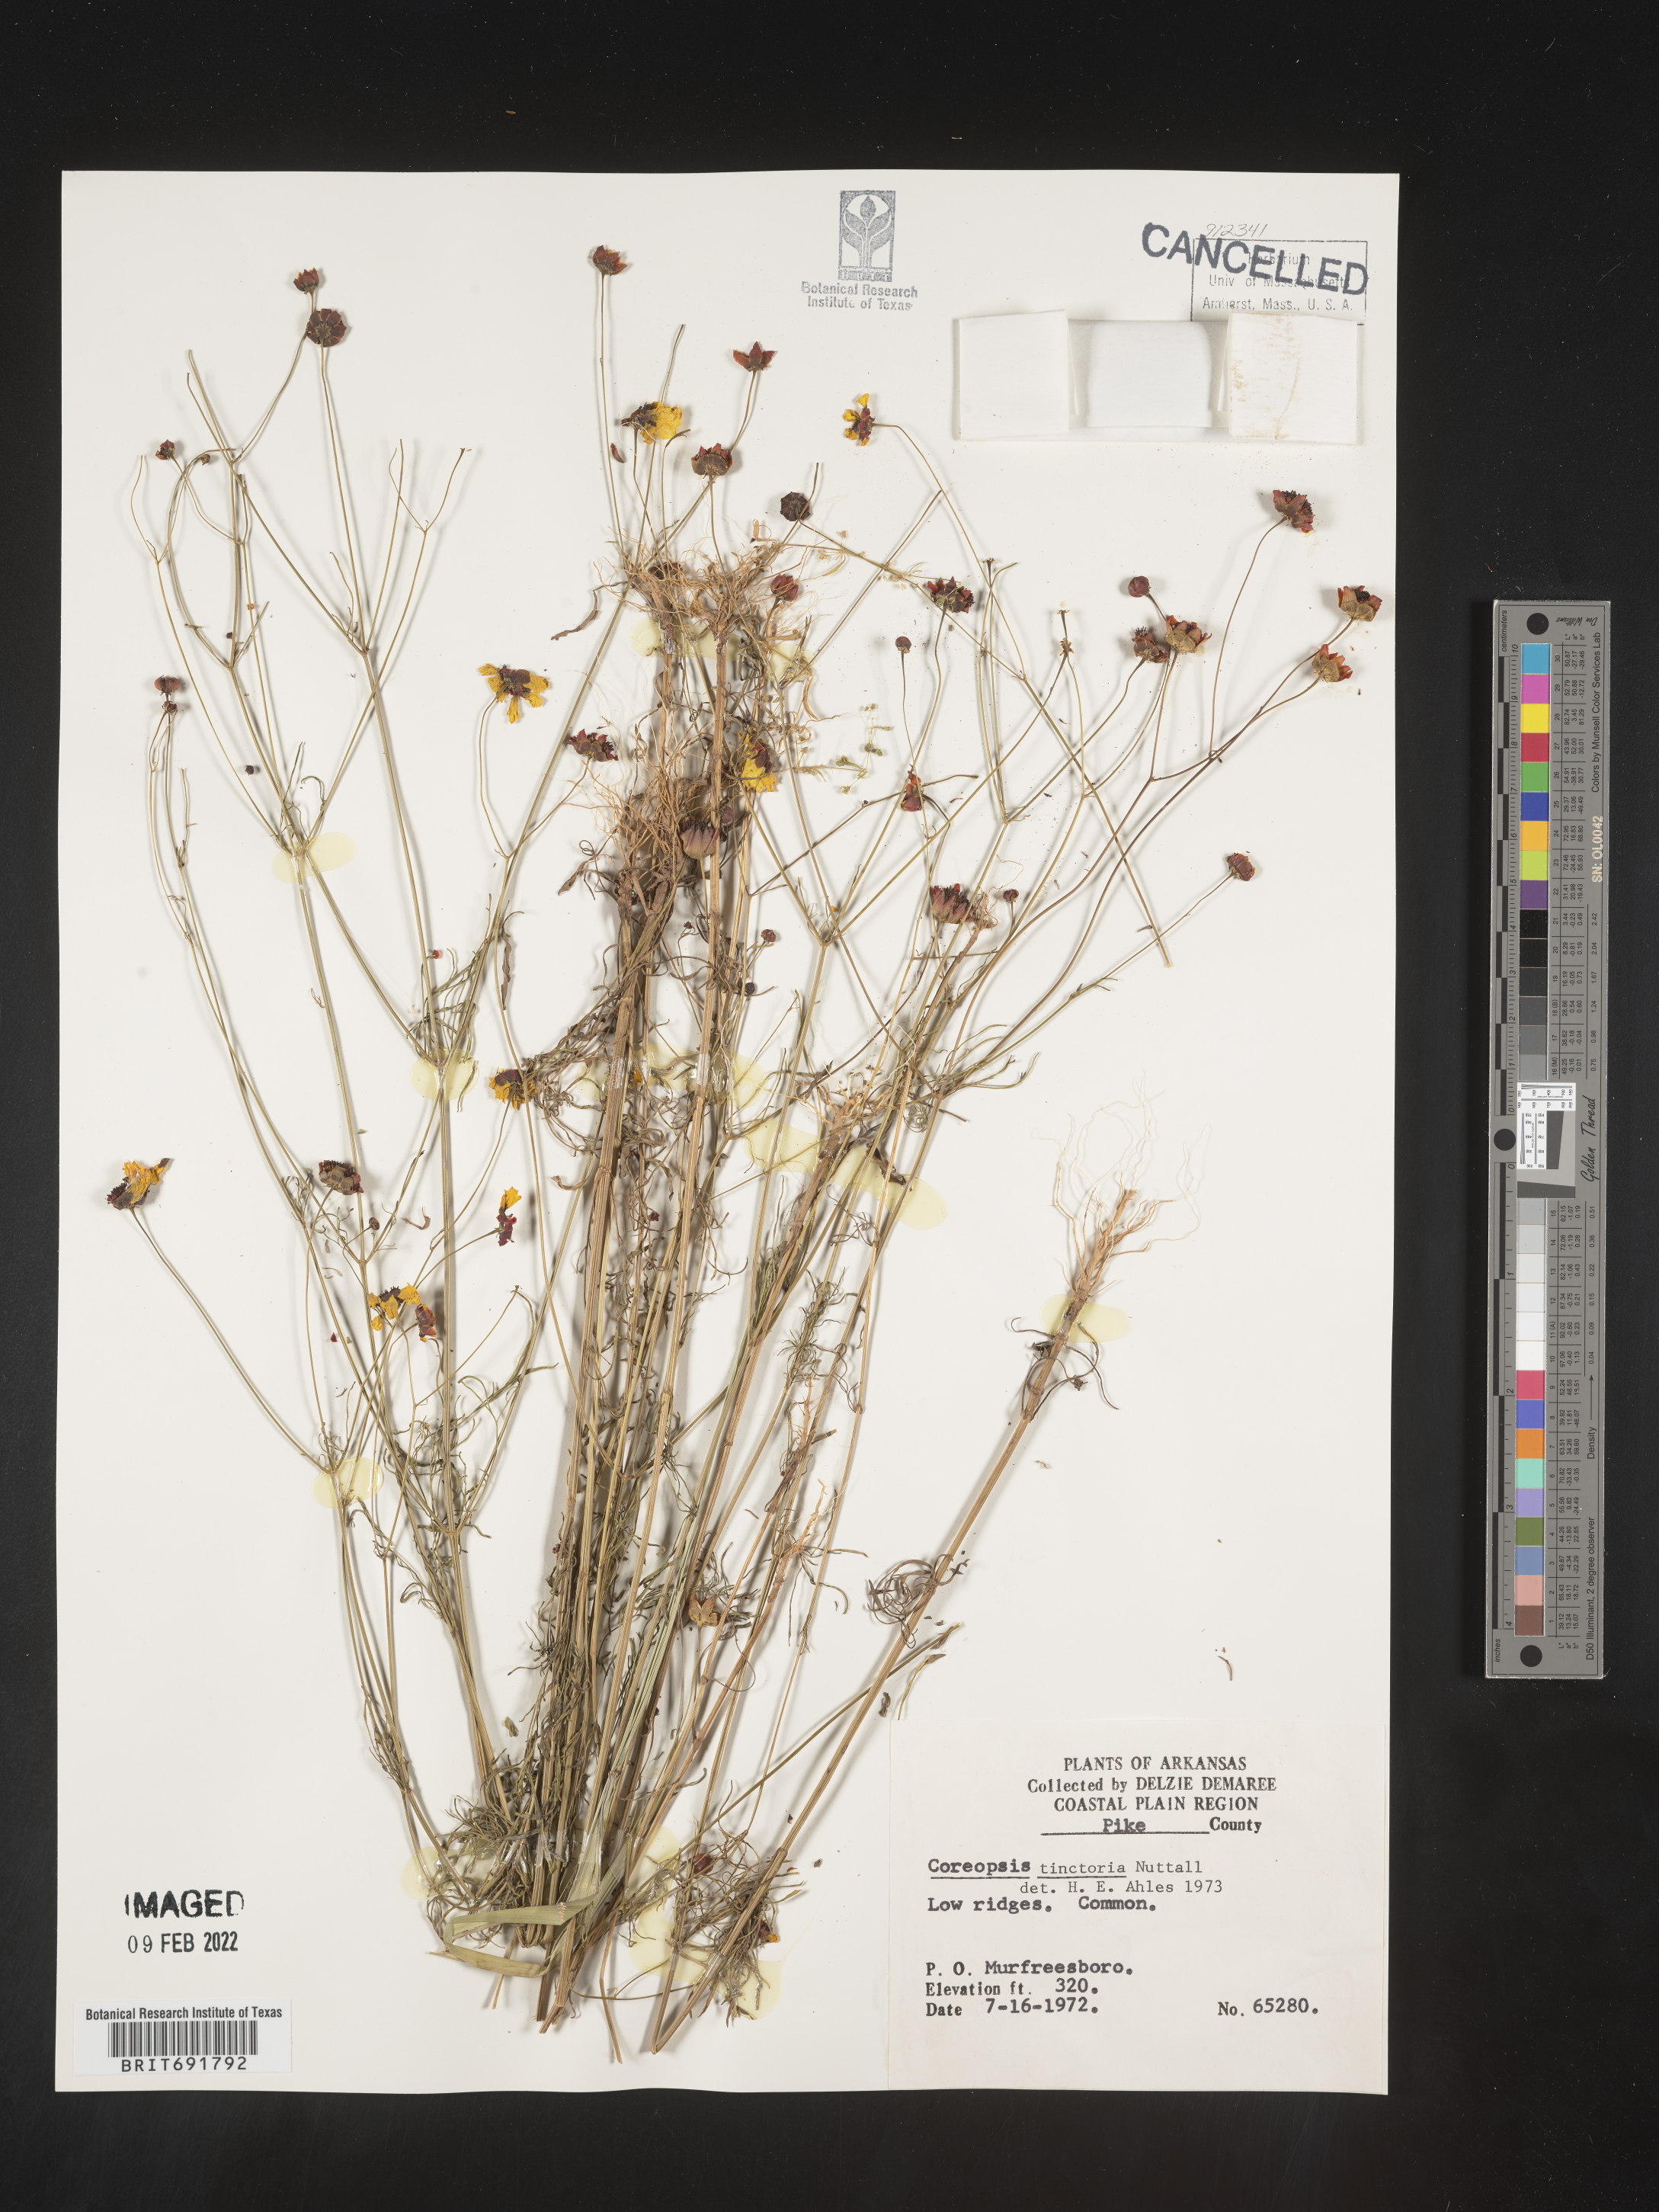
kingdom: Plantae
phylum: Tracheophyta
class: Magnoliopsida
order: Asterales
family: Asteraceae
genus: Coreopsis
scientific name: Coreopsis tinctoria
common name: Garden tickseed
